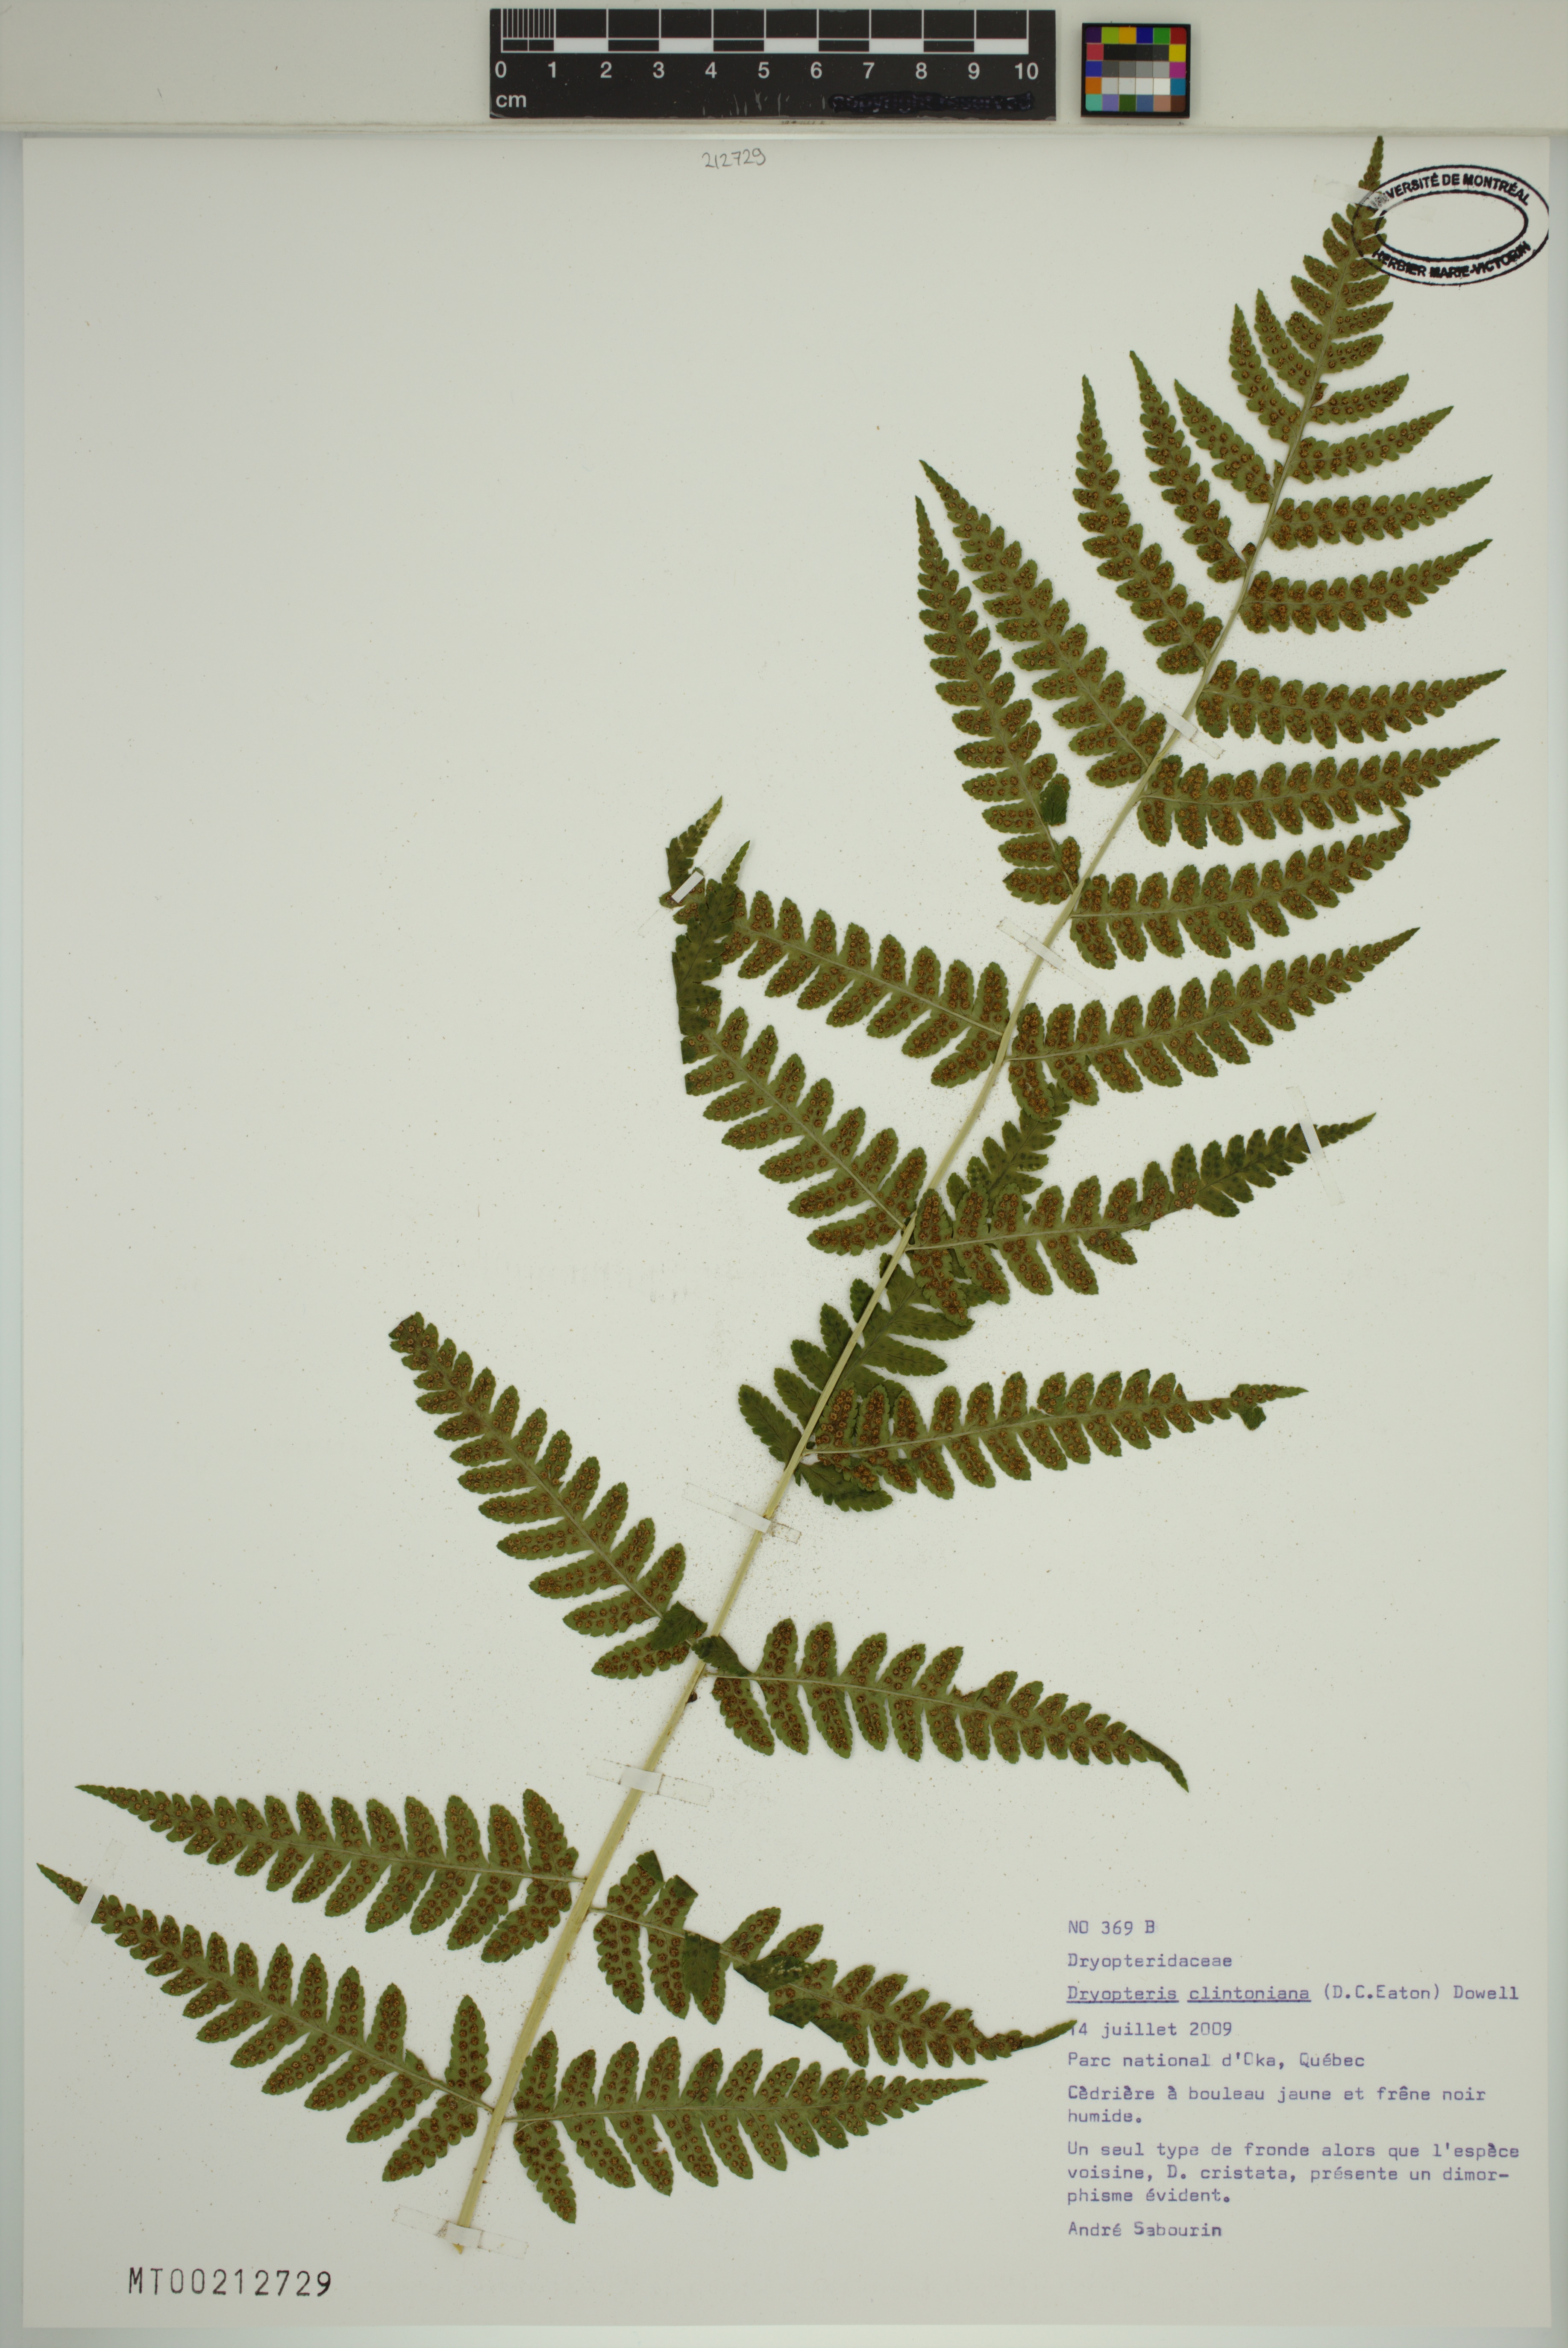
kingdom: Plantae
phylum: Tracheophyta
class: Polypodiopsida
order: Polypodiales
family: Dryopteridaceae
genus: Dryopteris
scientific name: Dryopteris clintoniana
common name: Clinton's wood fern
